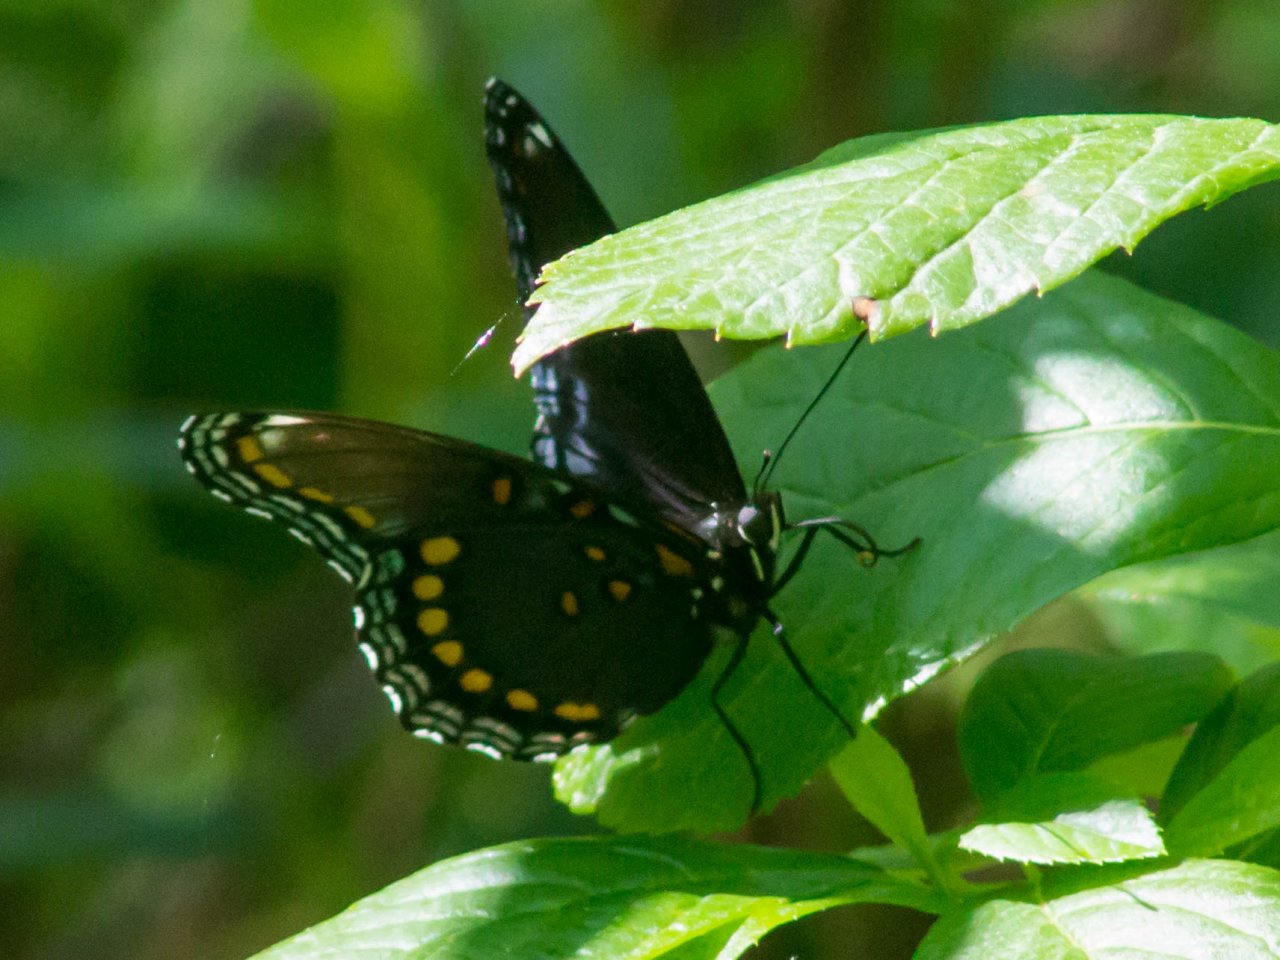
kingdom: Animalia
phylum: Arthropoda
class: Insecta
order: Lepidoptera
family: Nymphalidae
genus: Limenitis
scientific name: Limenitis astyanax
